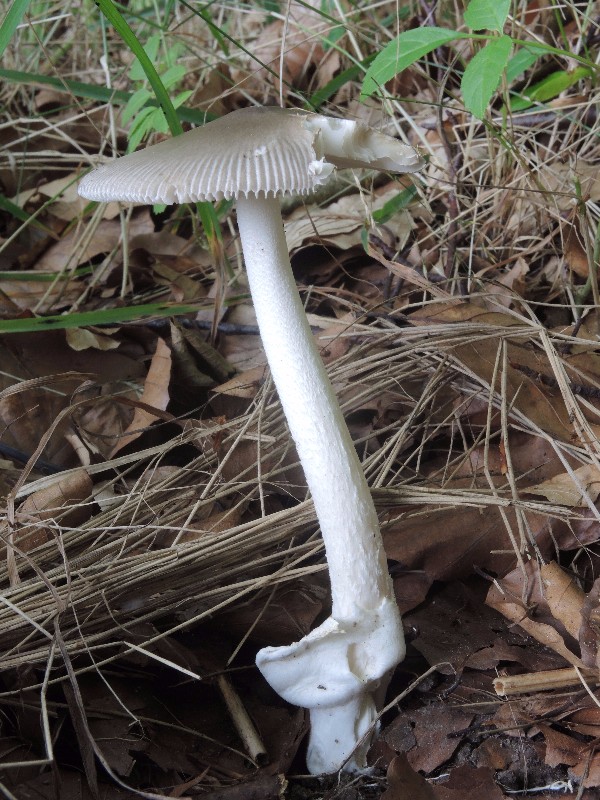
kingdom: Fungi
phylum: Basidiomycota
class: Agaricomycetes
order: Agaricales
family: Amanitaceae
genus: Amanita
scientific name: Amanita vaginata
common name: grå kam-fluesvamp
